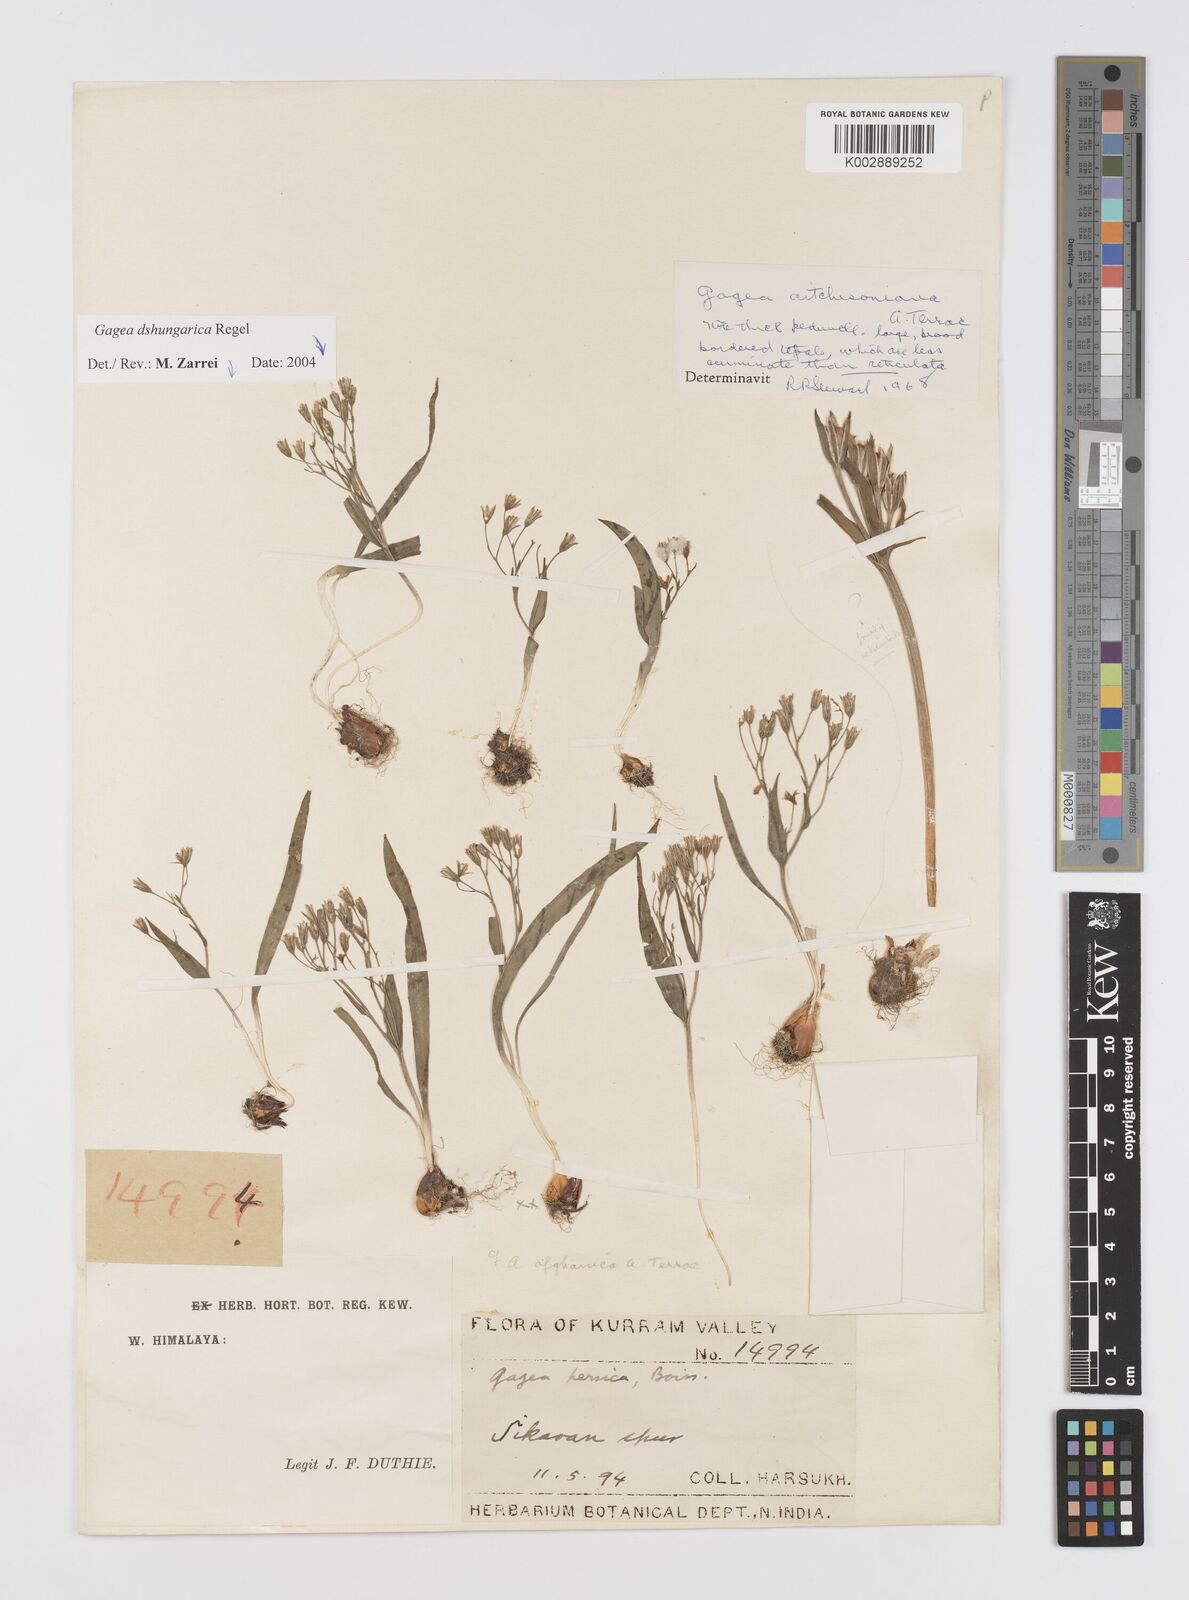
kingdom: Plantae
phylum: Tracheophyta
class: Liliopsida
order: Liliales
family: Liliaceae
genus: Gagea
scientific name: Gagea afghanica
